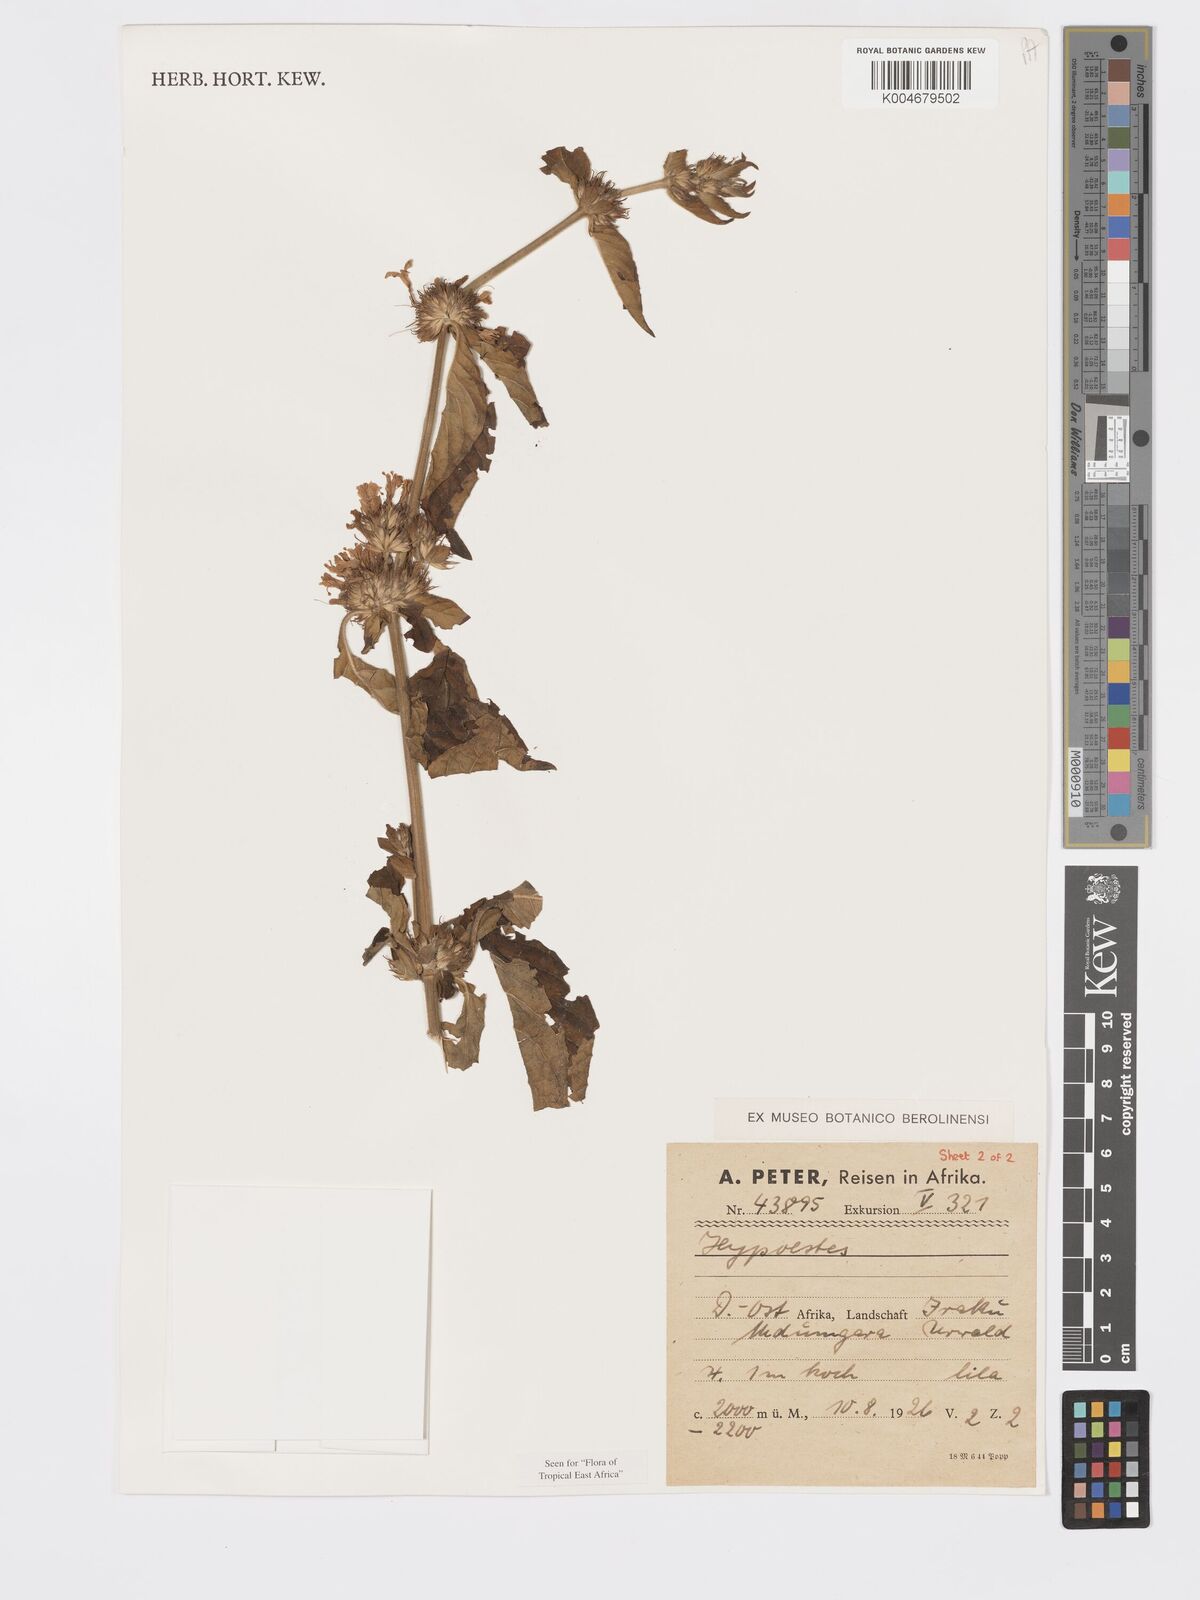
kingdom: Plantae
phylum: Tracheophyta
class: Magnoliopsida
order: Lamiales
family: Acanthaceae
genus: Hypoestes
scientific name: Hypoestes aristata
